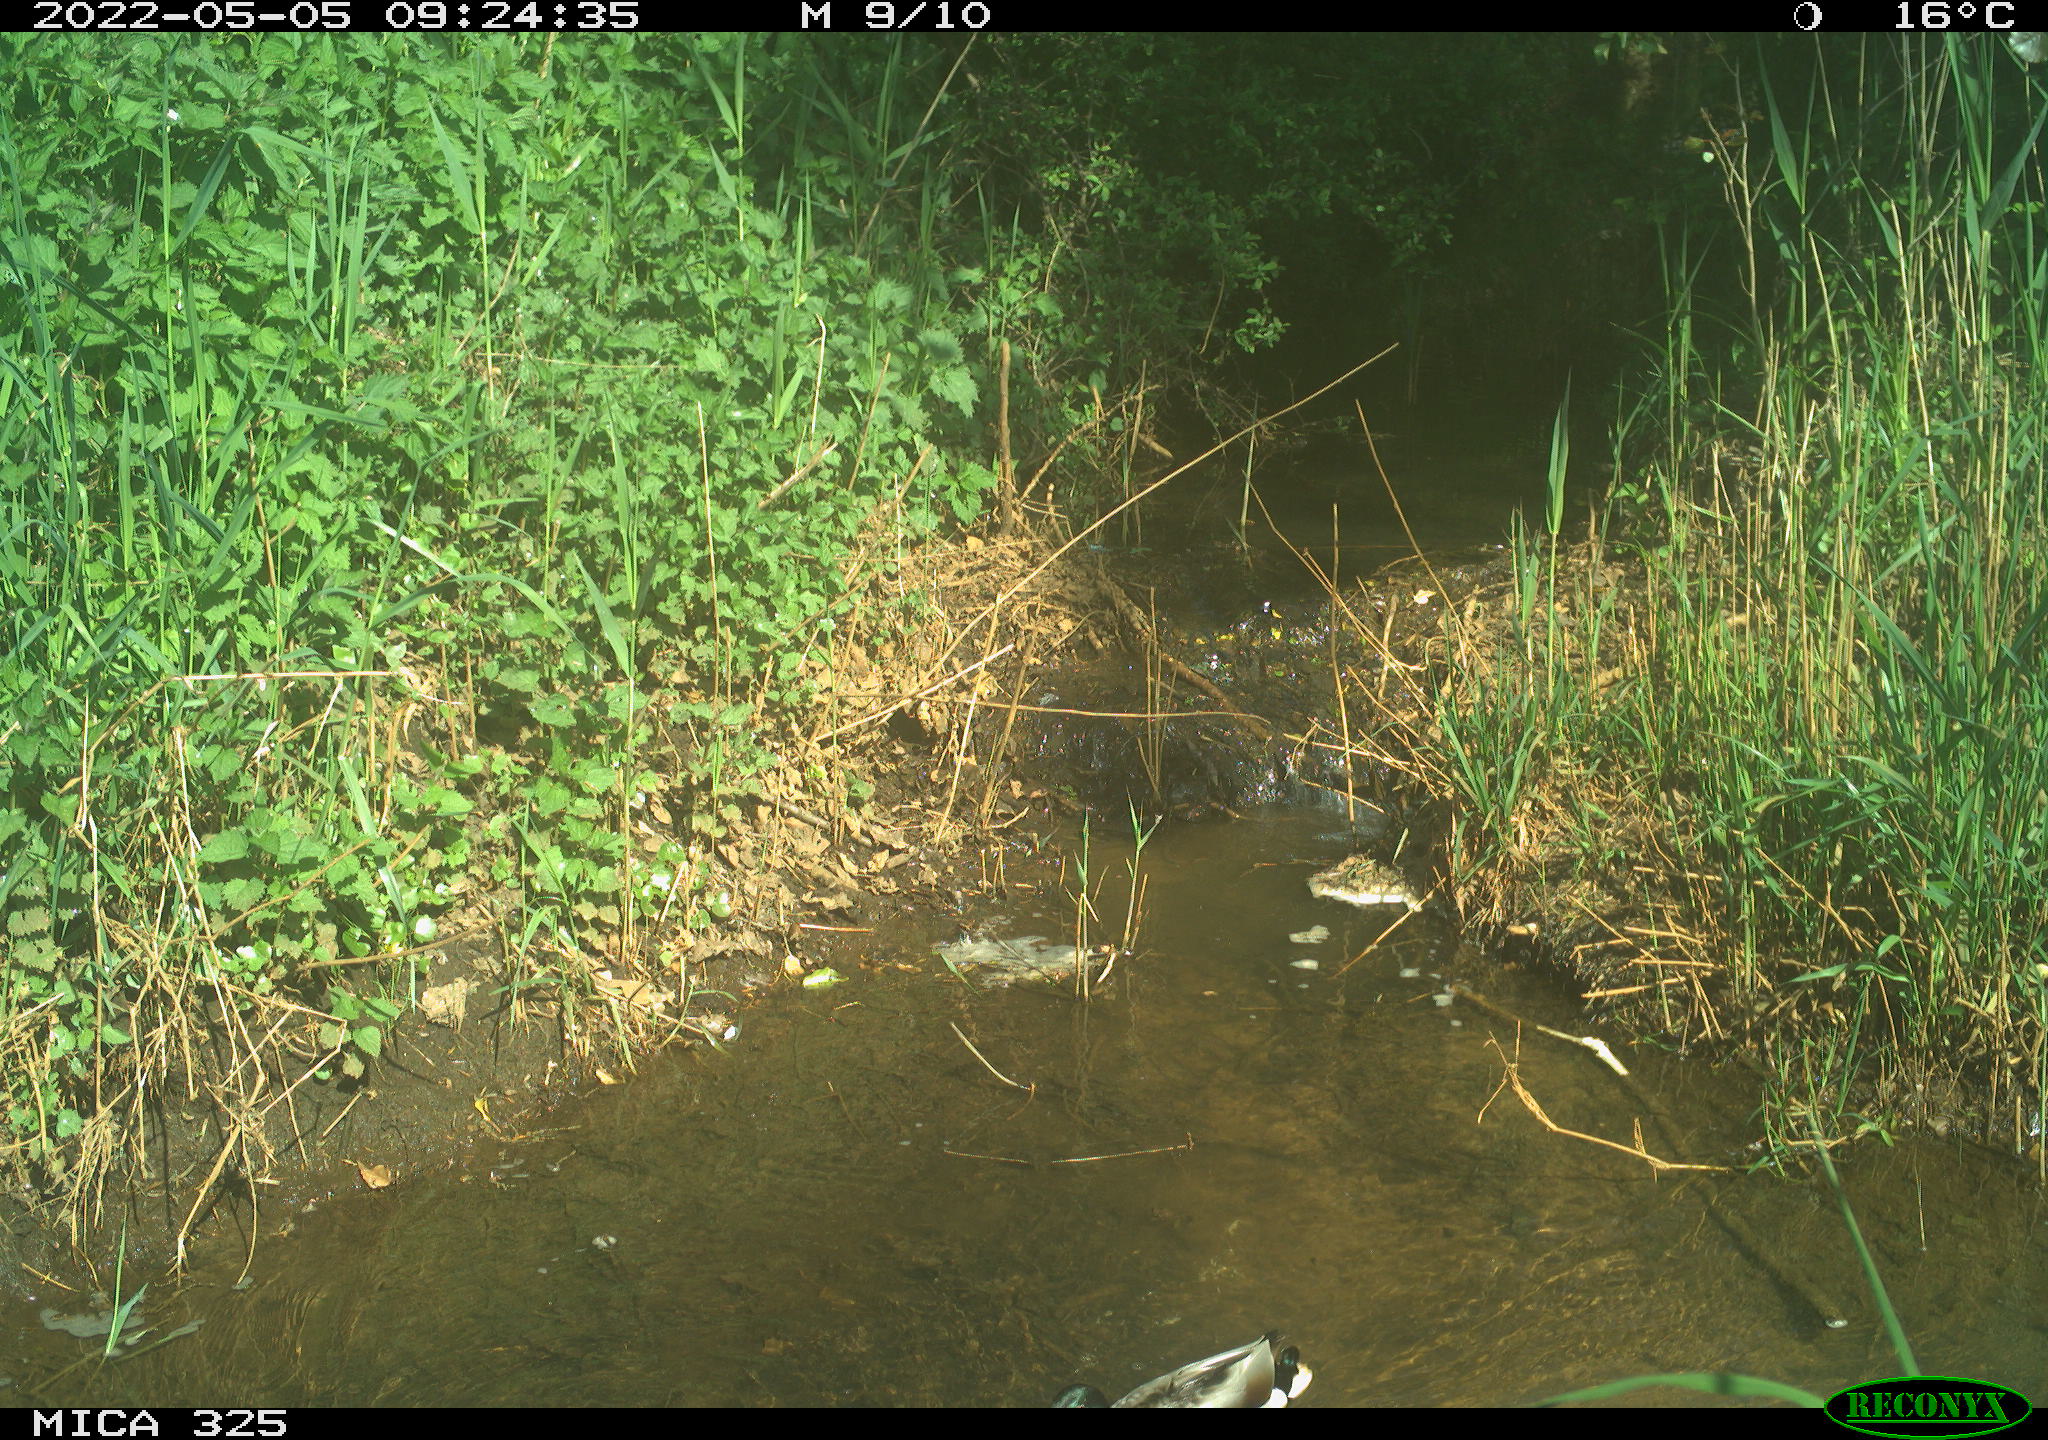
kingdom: Animalia
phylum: Chordata
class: Aves
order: Anseriformes
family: Anatidae
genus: Anas
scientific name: Anas platyrhynchos
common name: Mallard
